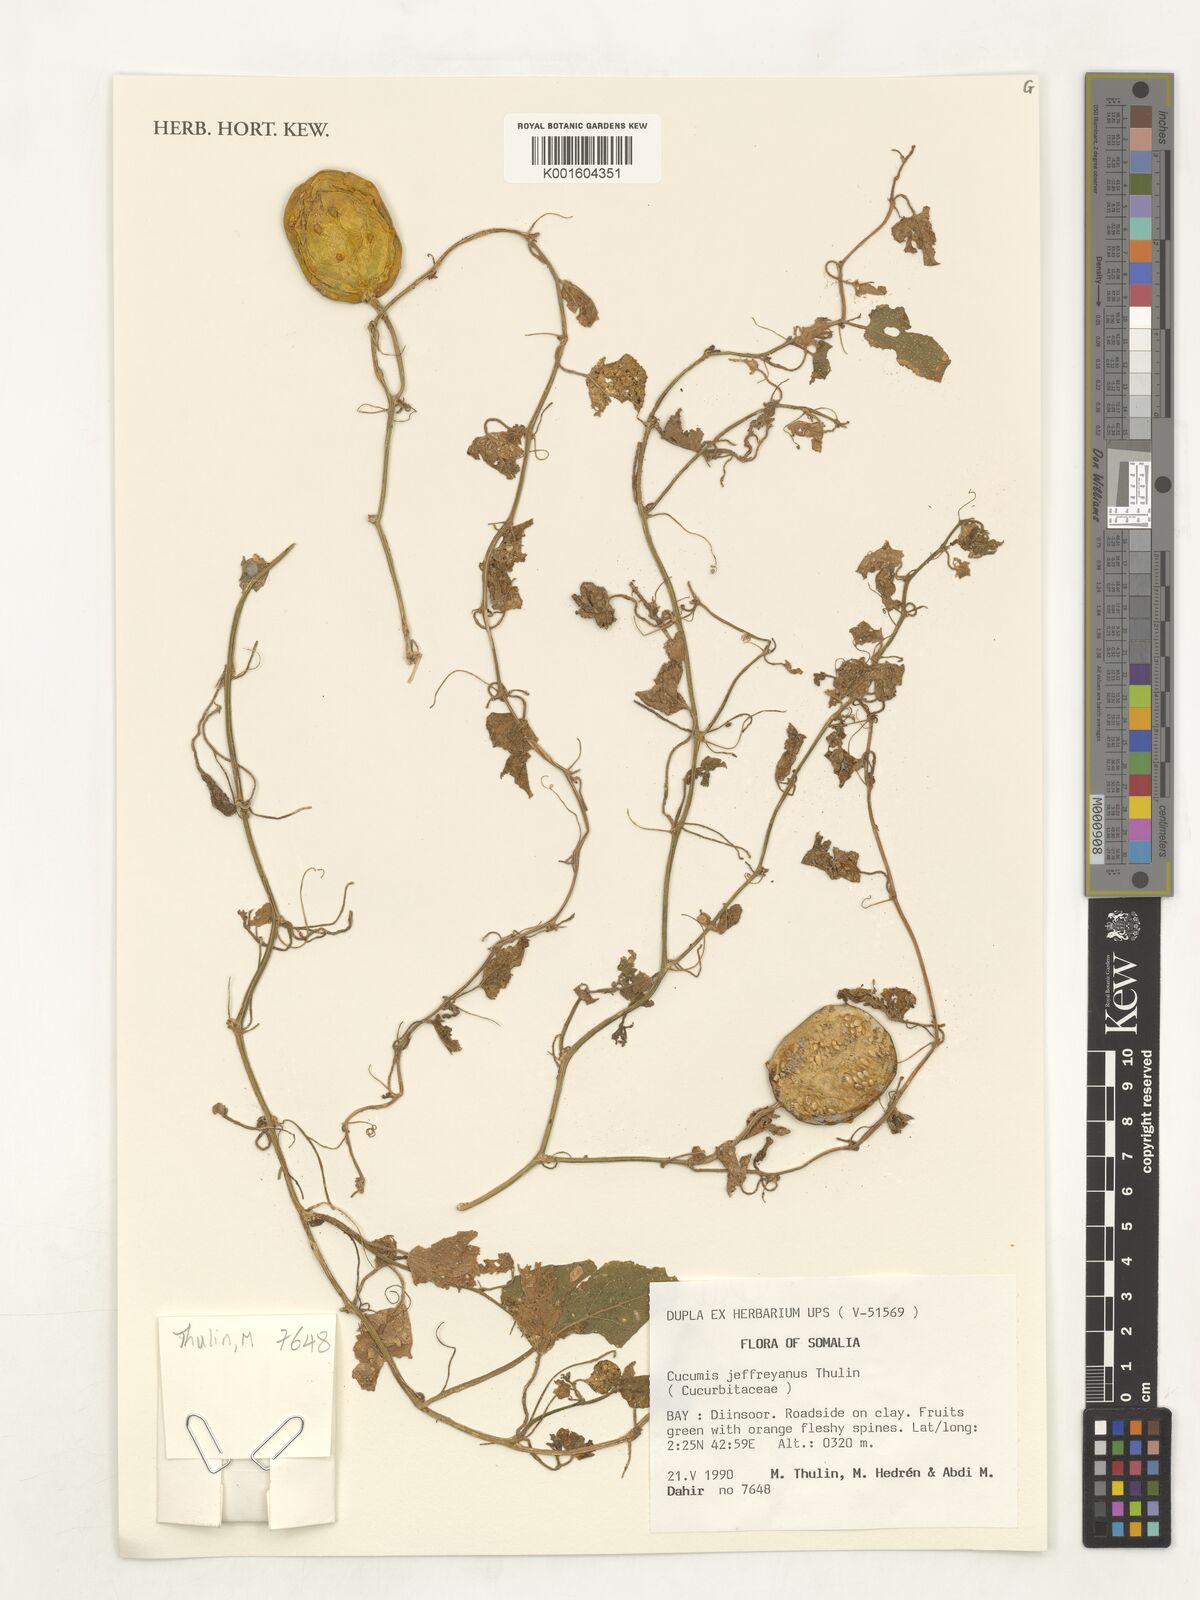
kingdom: Plantae
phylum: Tracheophyta
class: Magnoliopsida
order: Cucurbitales
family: Cucurbitaceae
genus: Cucumis
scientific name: Cucumis jeffreyanus
